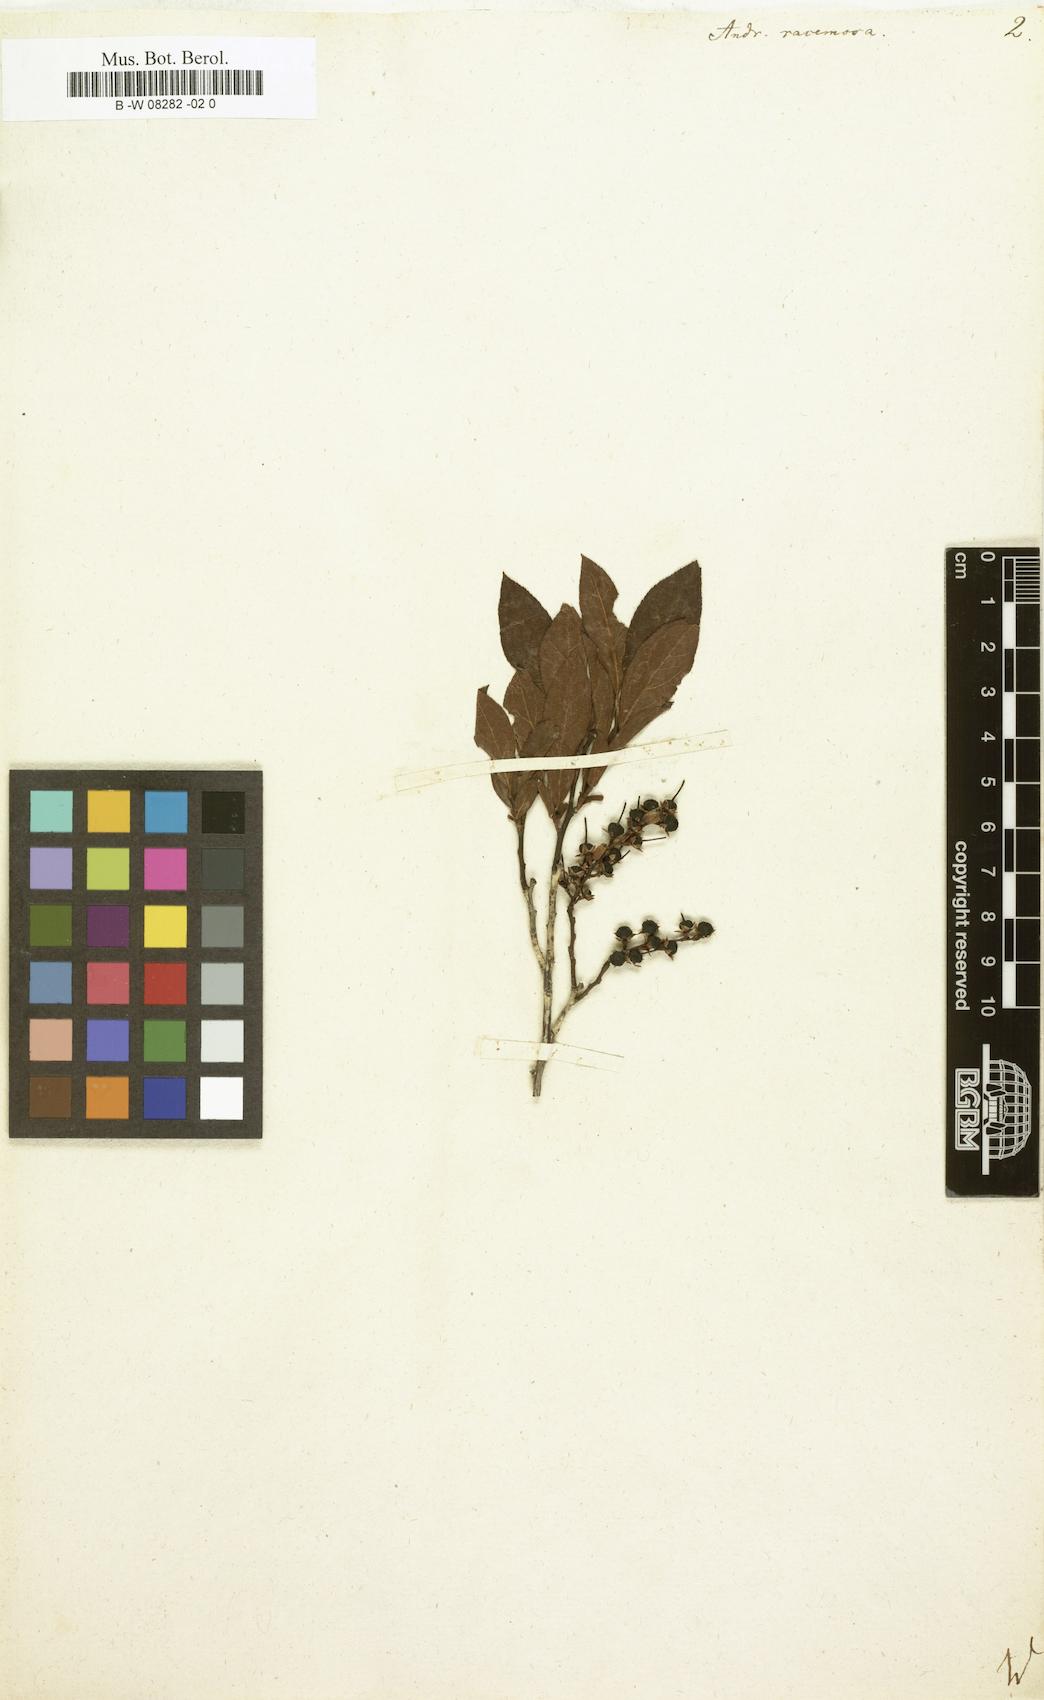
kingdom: Plantae
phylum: Tracheophyta
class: Magnoliopsida
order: Ericales
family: Ericaceae
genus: Eubotrys
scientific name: Eubotrys racemosa
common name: Fetterbush
